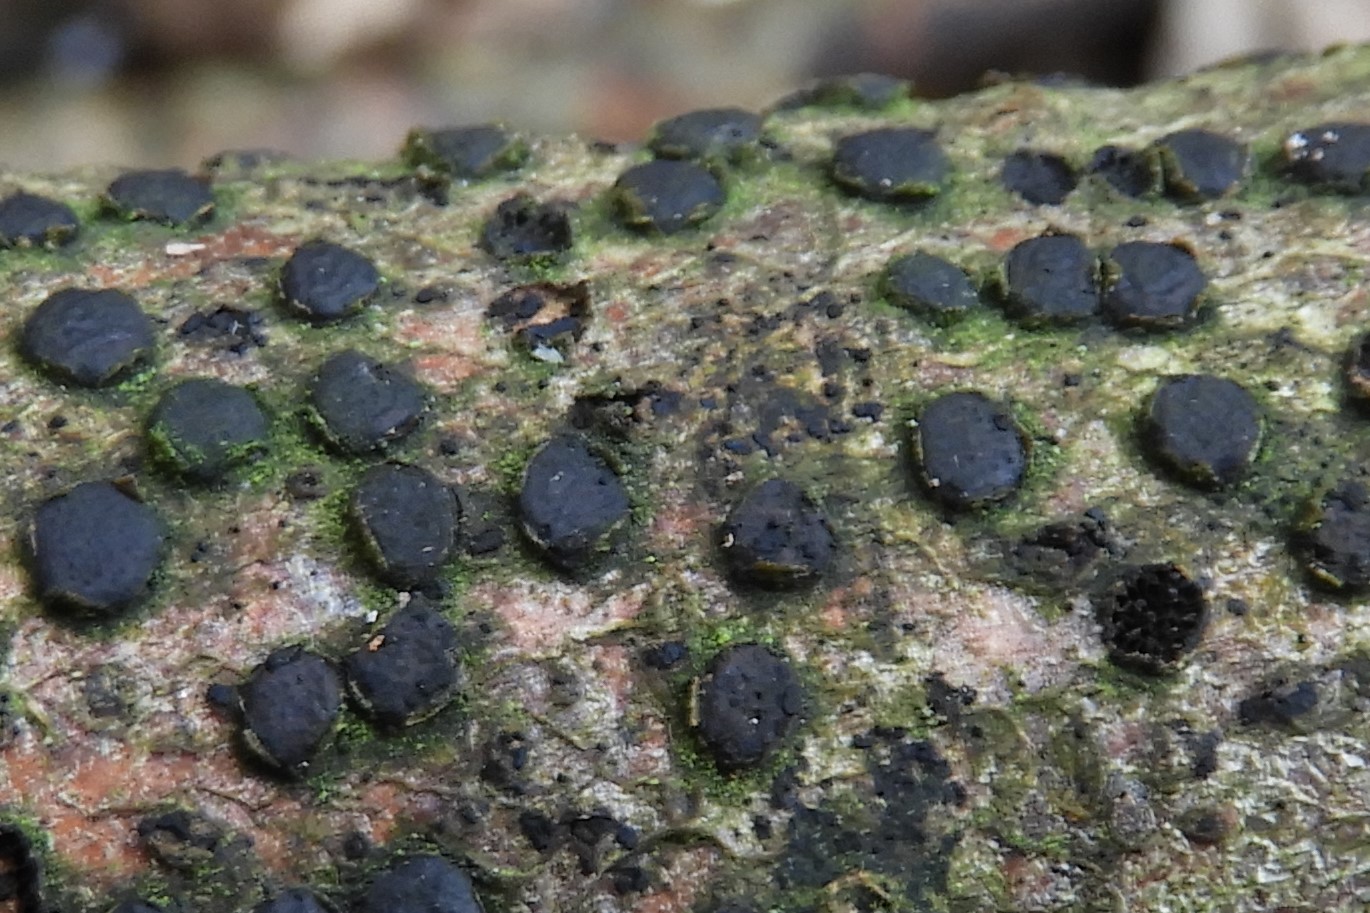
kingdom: Fungi
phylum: Ascomycota
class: Sordariomycetes
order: Xylariales
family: Diatrypaceae
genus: Diatrype
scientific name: Diatrype disciformis
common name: kant-kulskorpe
